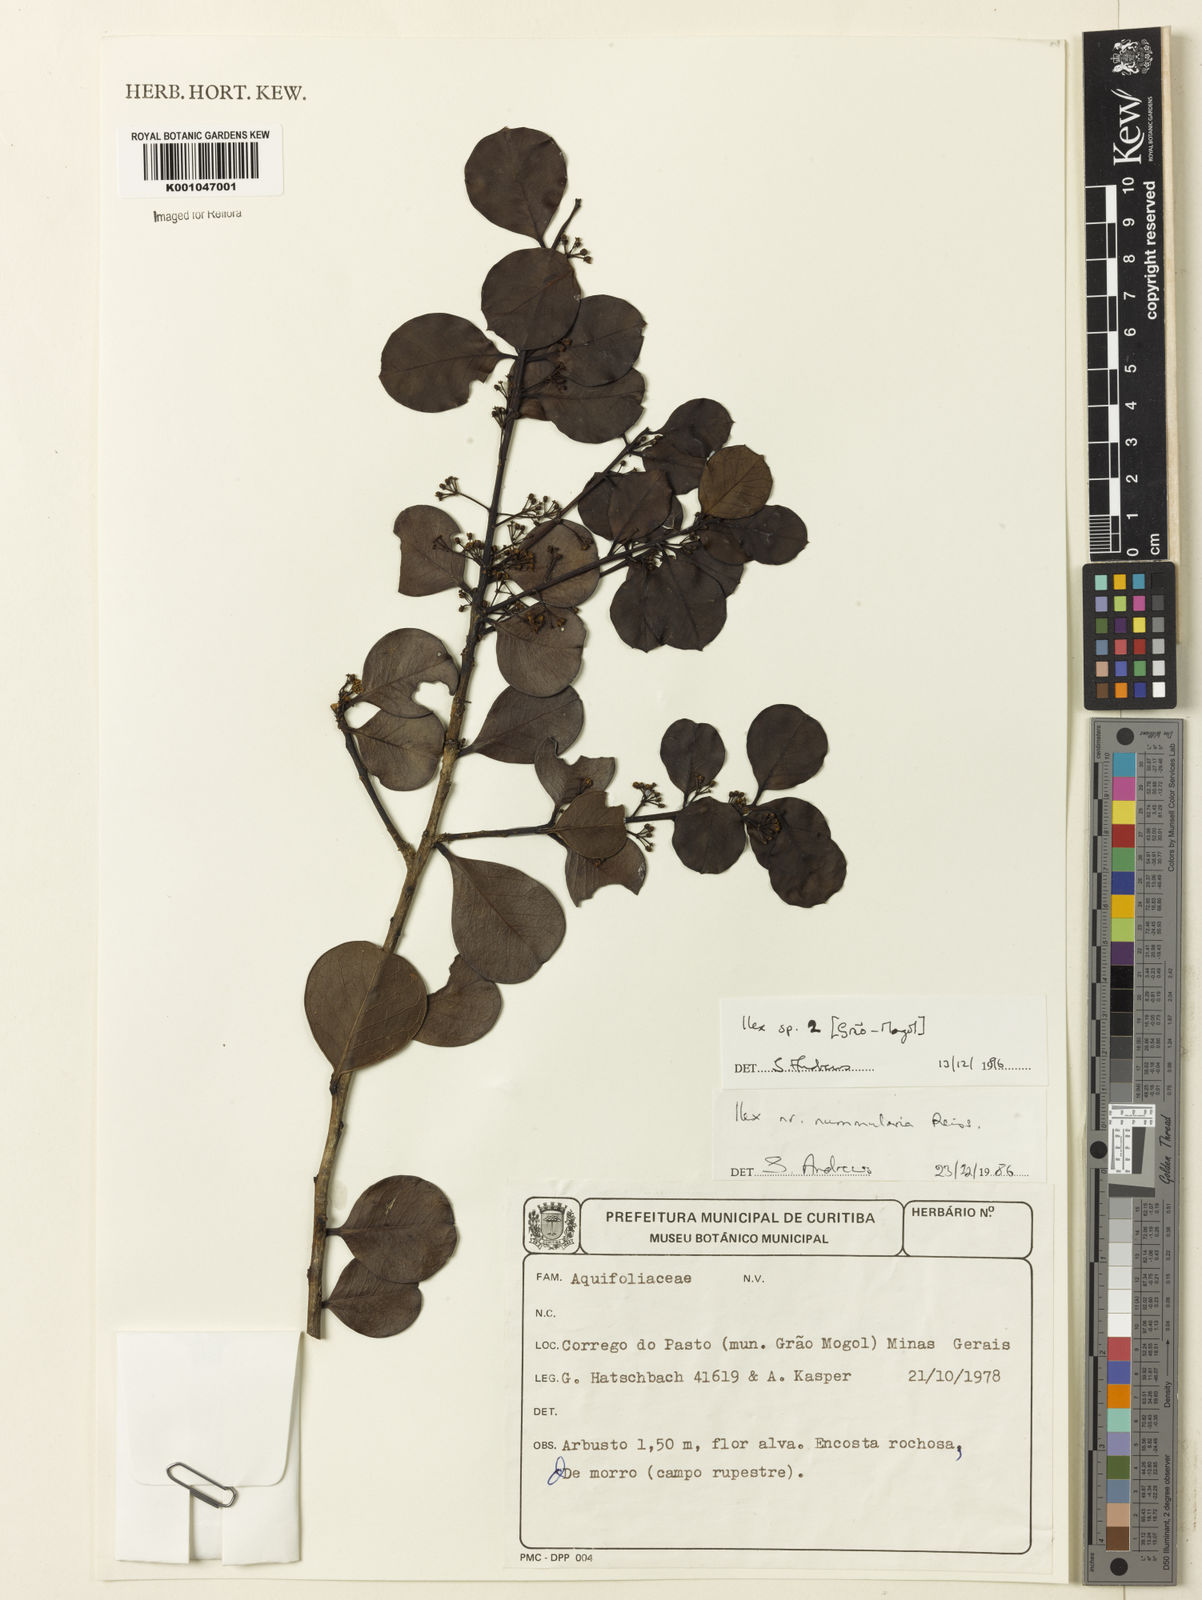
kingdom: Plantae
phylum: Tracheophyta
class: Magnoliopsida
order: Aquifoliales
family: Aquifoliaceae
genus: Ilex
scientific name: Ilex
